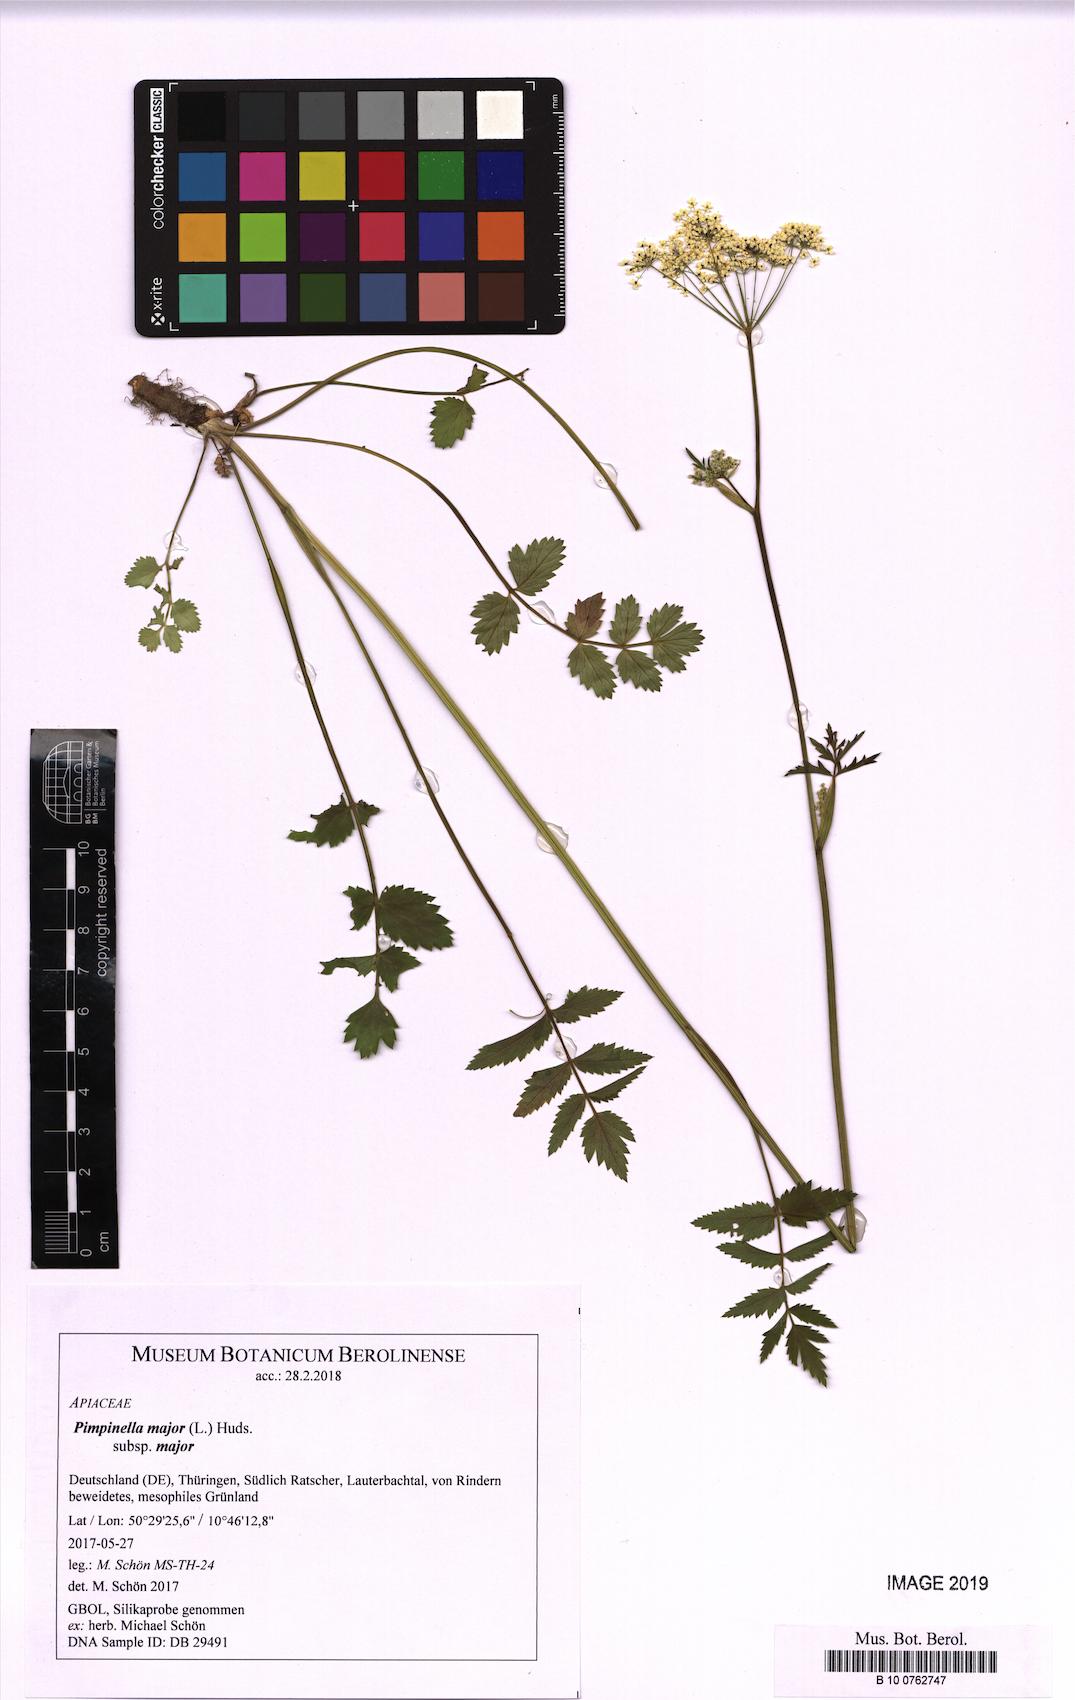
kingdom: Plantae
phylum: Tracheophyta
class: Magnoliopsida
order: Apiales
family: Apiaceae
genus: Pimpinella
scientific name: Pimpinella major
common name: Greater burnet-saxifrage
